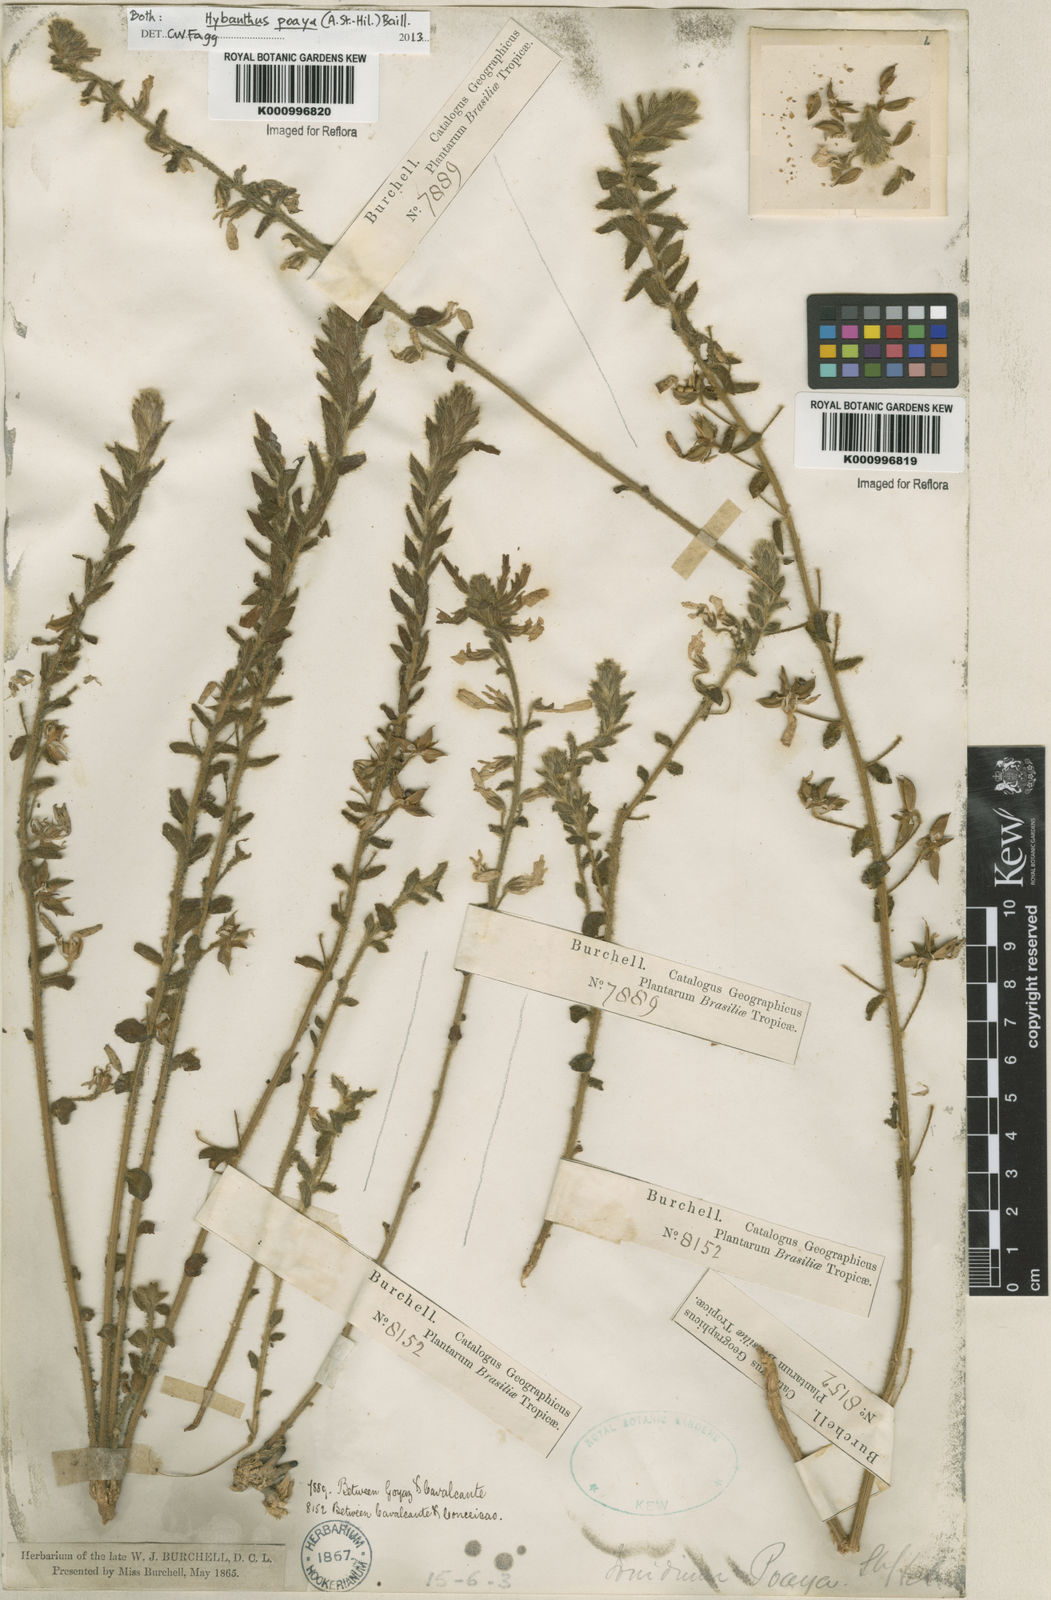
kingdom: Plantae
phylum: Tracheophyta
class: Magnoliopsida
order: Malpighiales
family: Violaceae
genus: Pombalia
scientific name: Pombalia poaya
